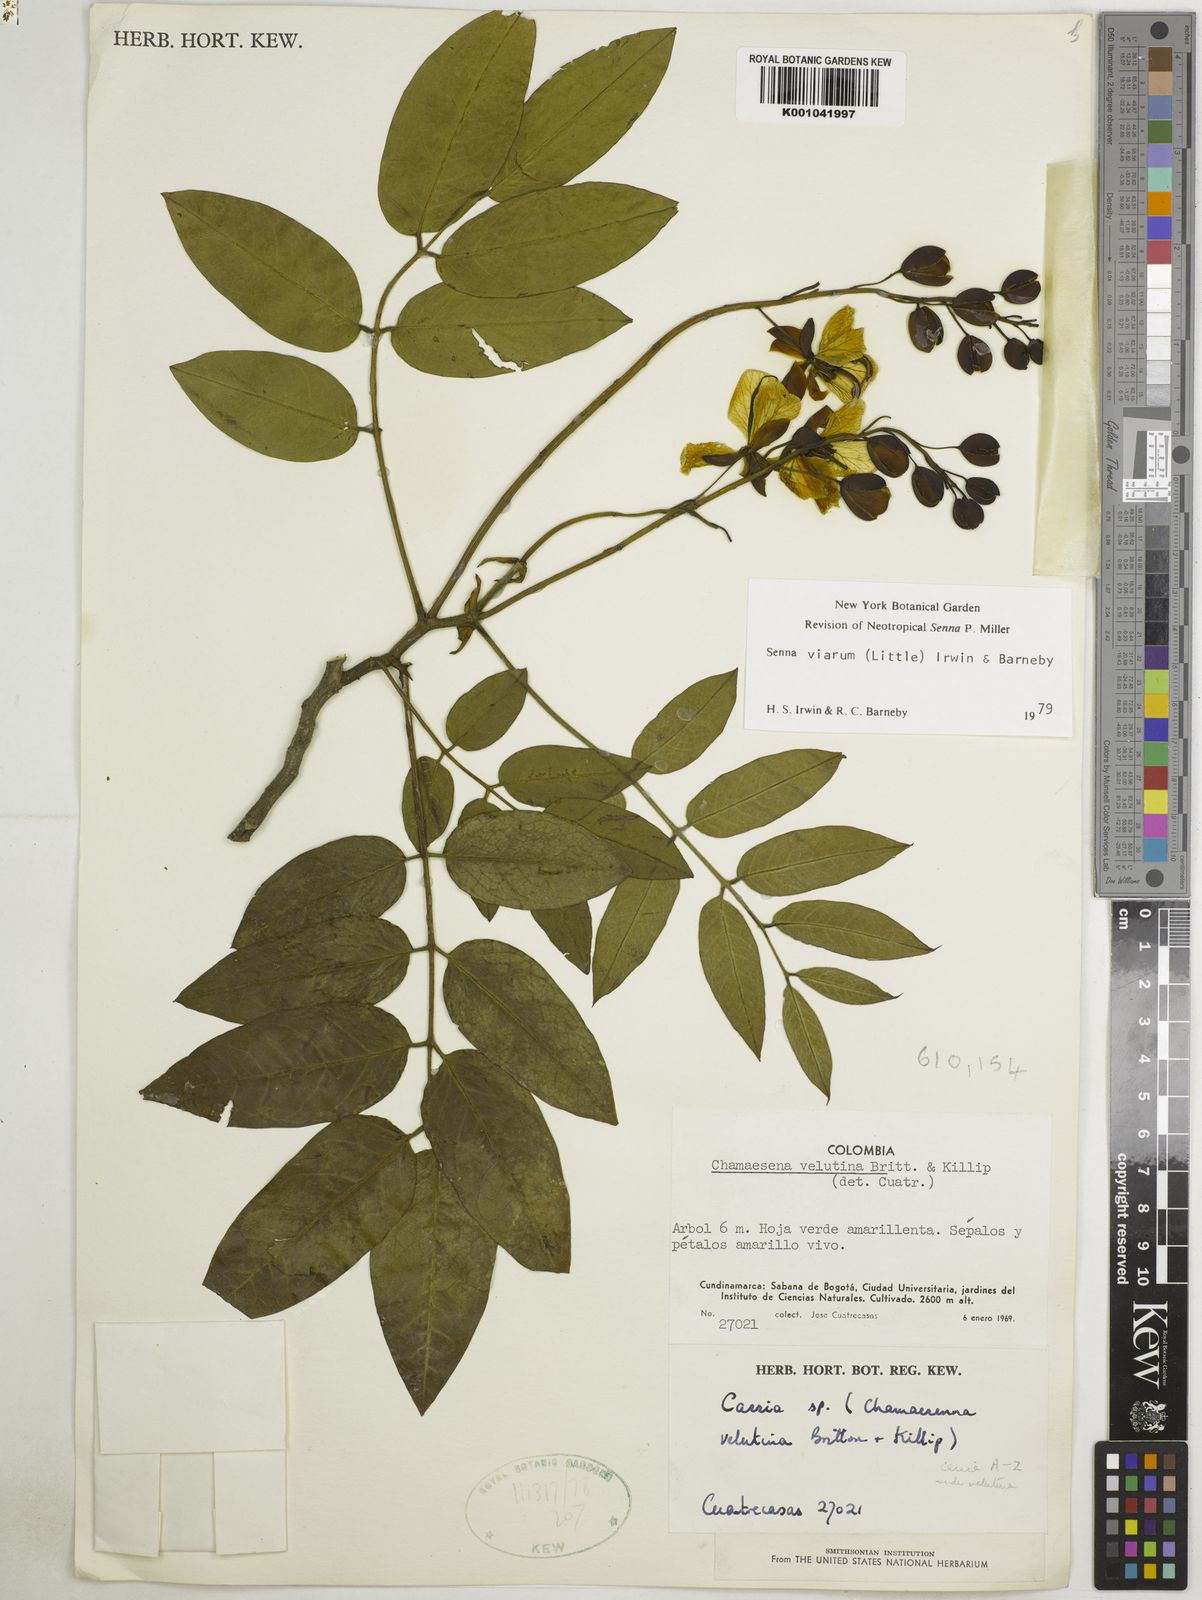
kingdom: Plantae
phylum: Tracheophyta
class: Magnoliopsida
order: Fabales
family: Fabaceae
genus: Senna
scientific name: Senna viarum
